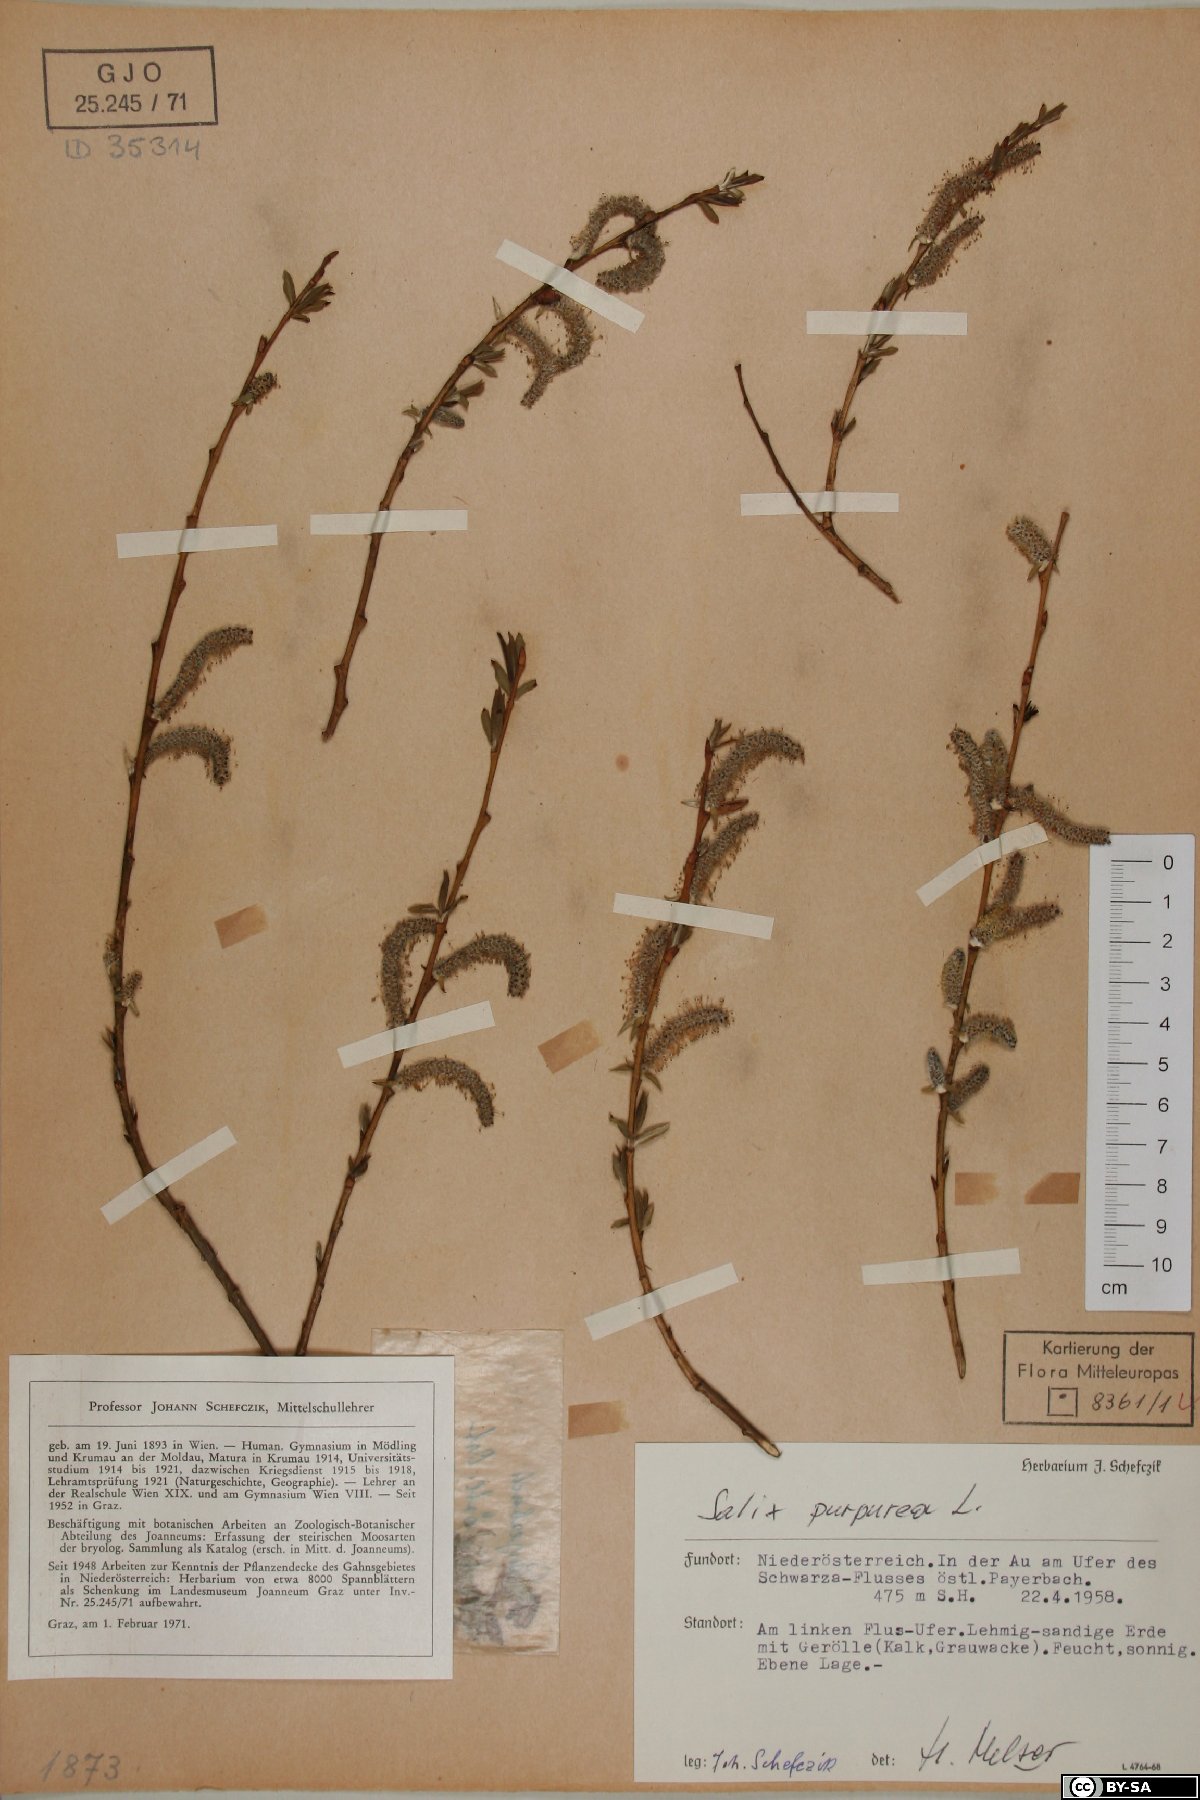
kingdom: Plantae
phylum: Tracheophyta
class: Magnoliopsida
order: Malpighiales
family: Salicaceae
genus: Salix
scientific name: Salix purpurea
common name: Purple willow
